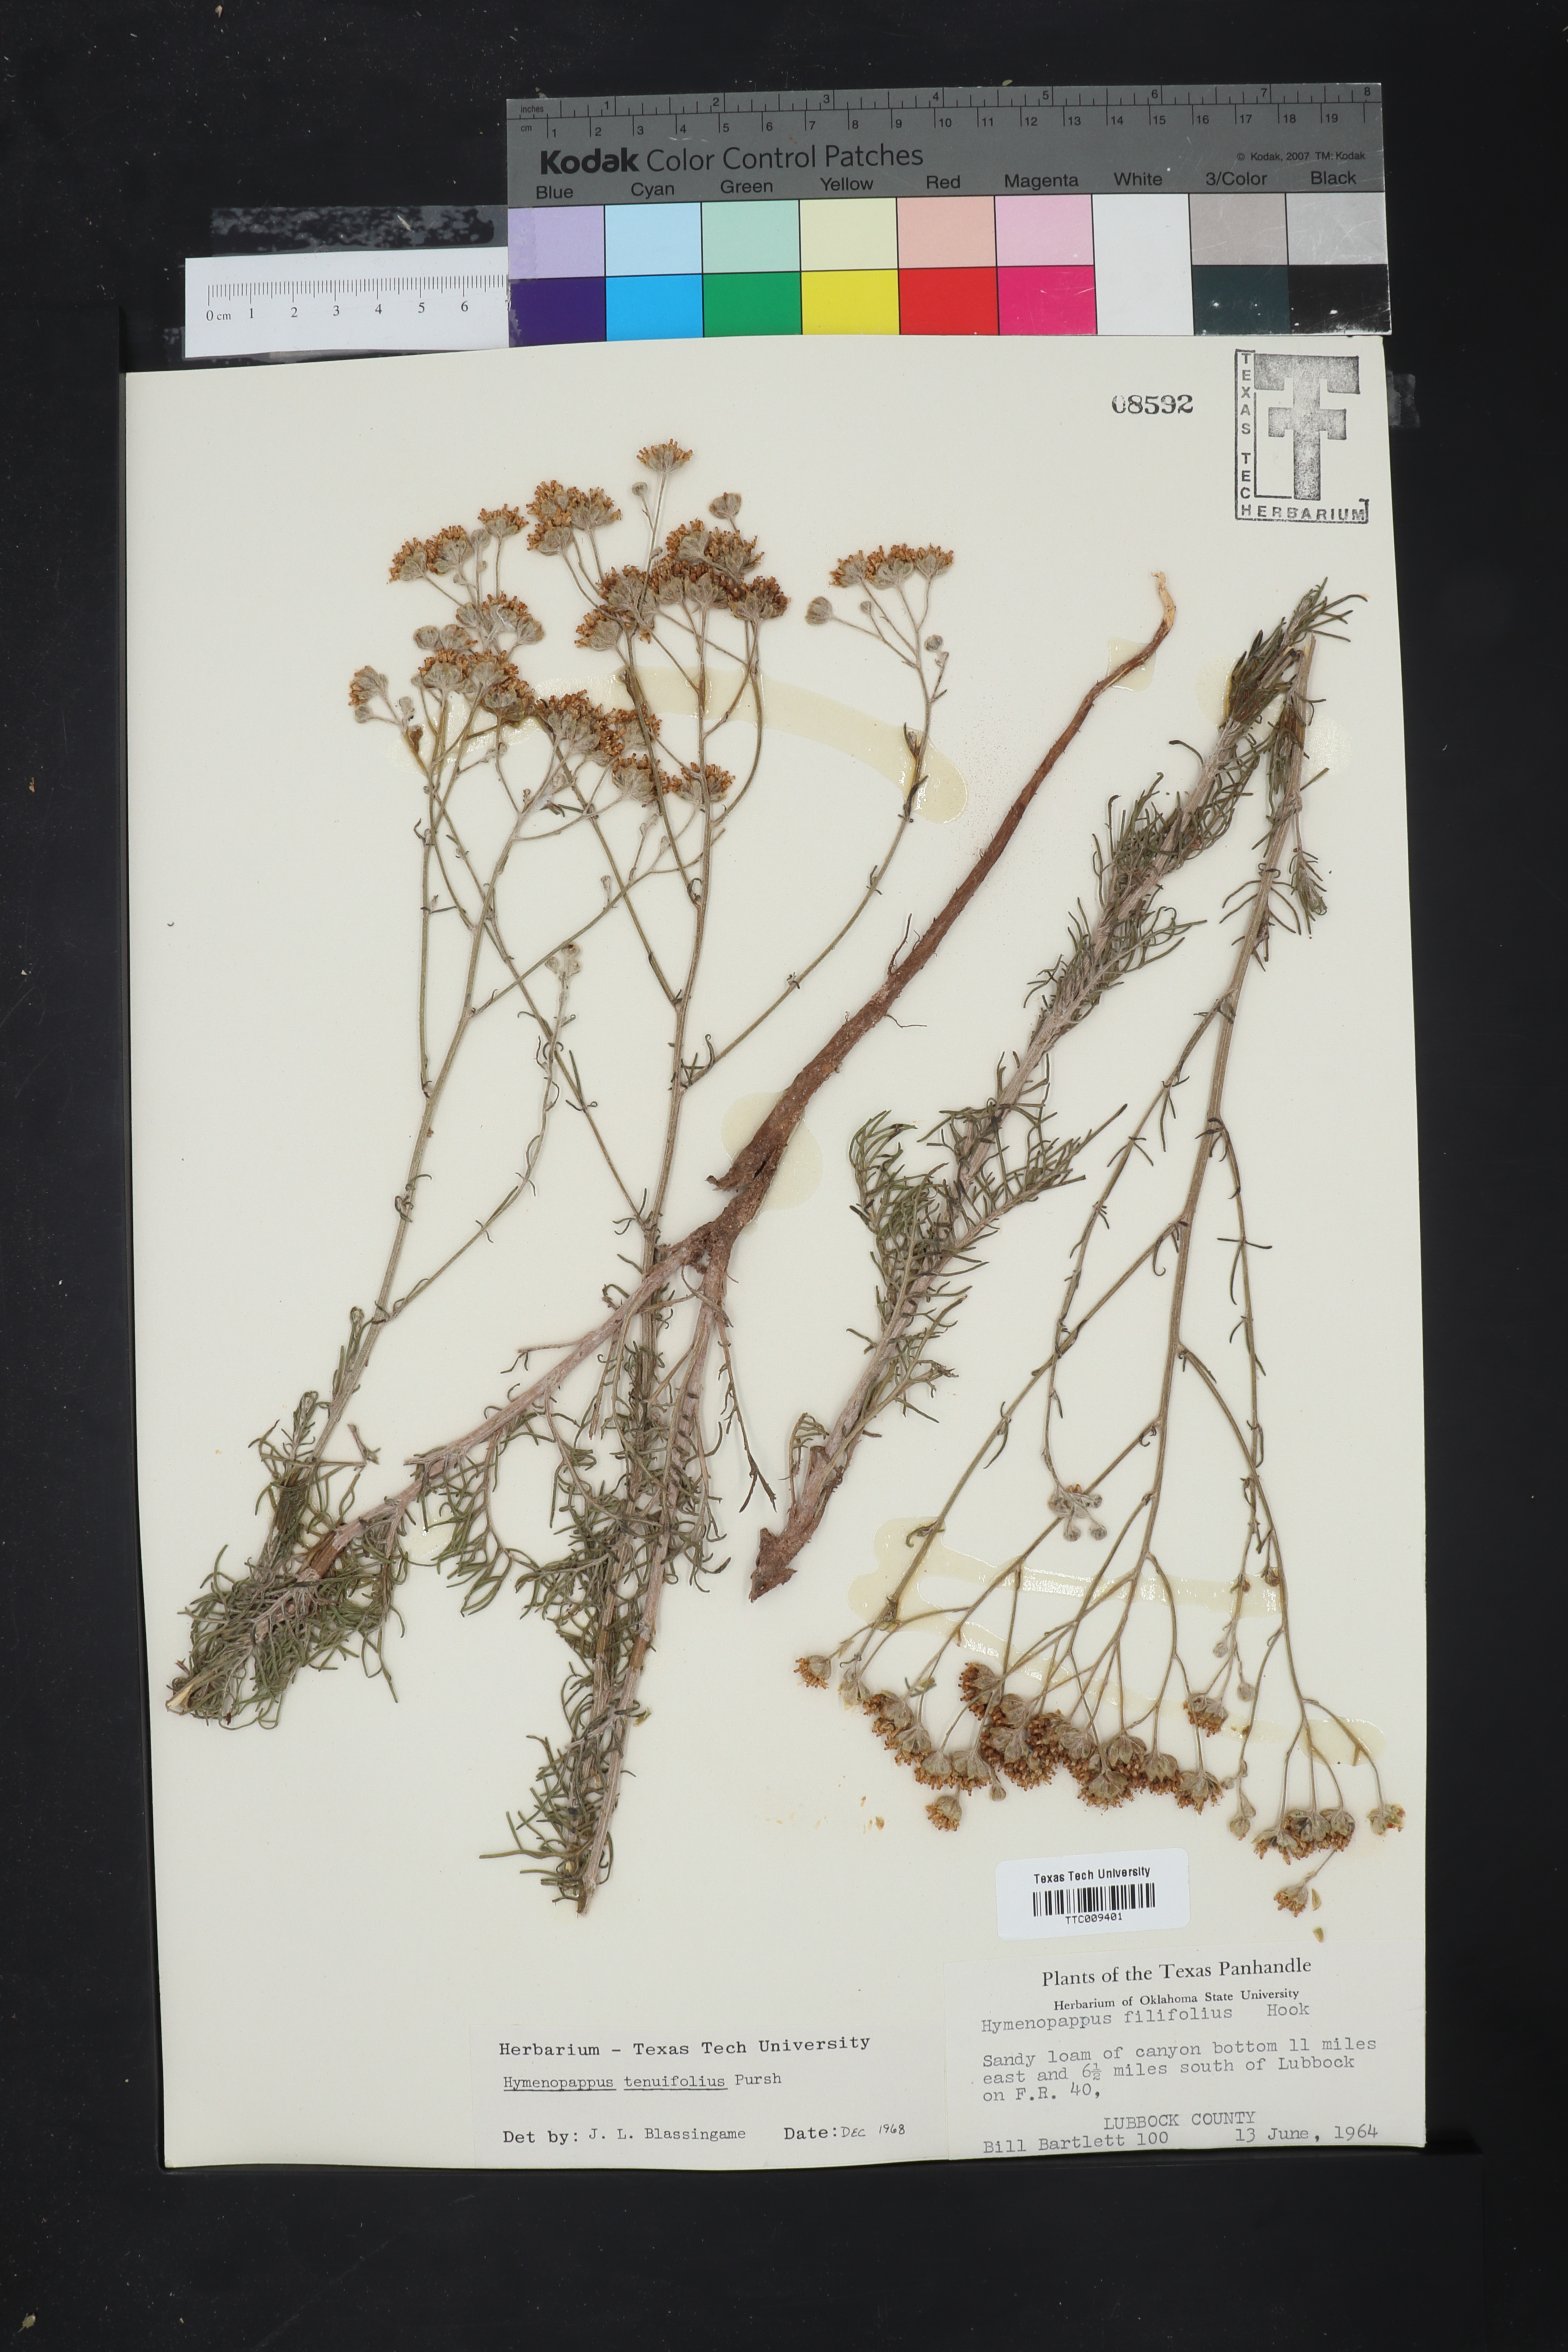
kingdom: Plantae
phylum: Tracheophyta
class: Magnoliopsida
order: Asterales
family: Asteraceae
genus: Hymenopappus
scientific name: Hymenopappus tenuifolius
